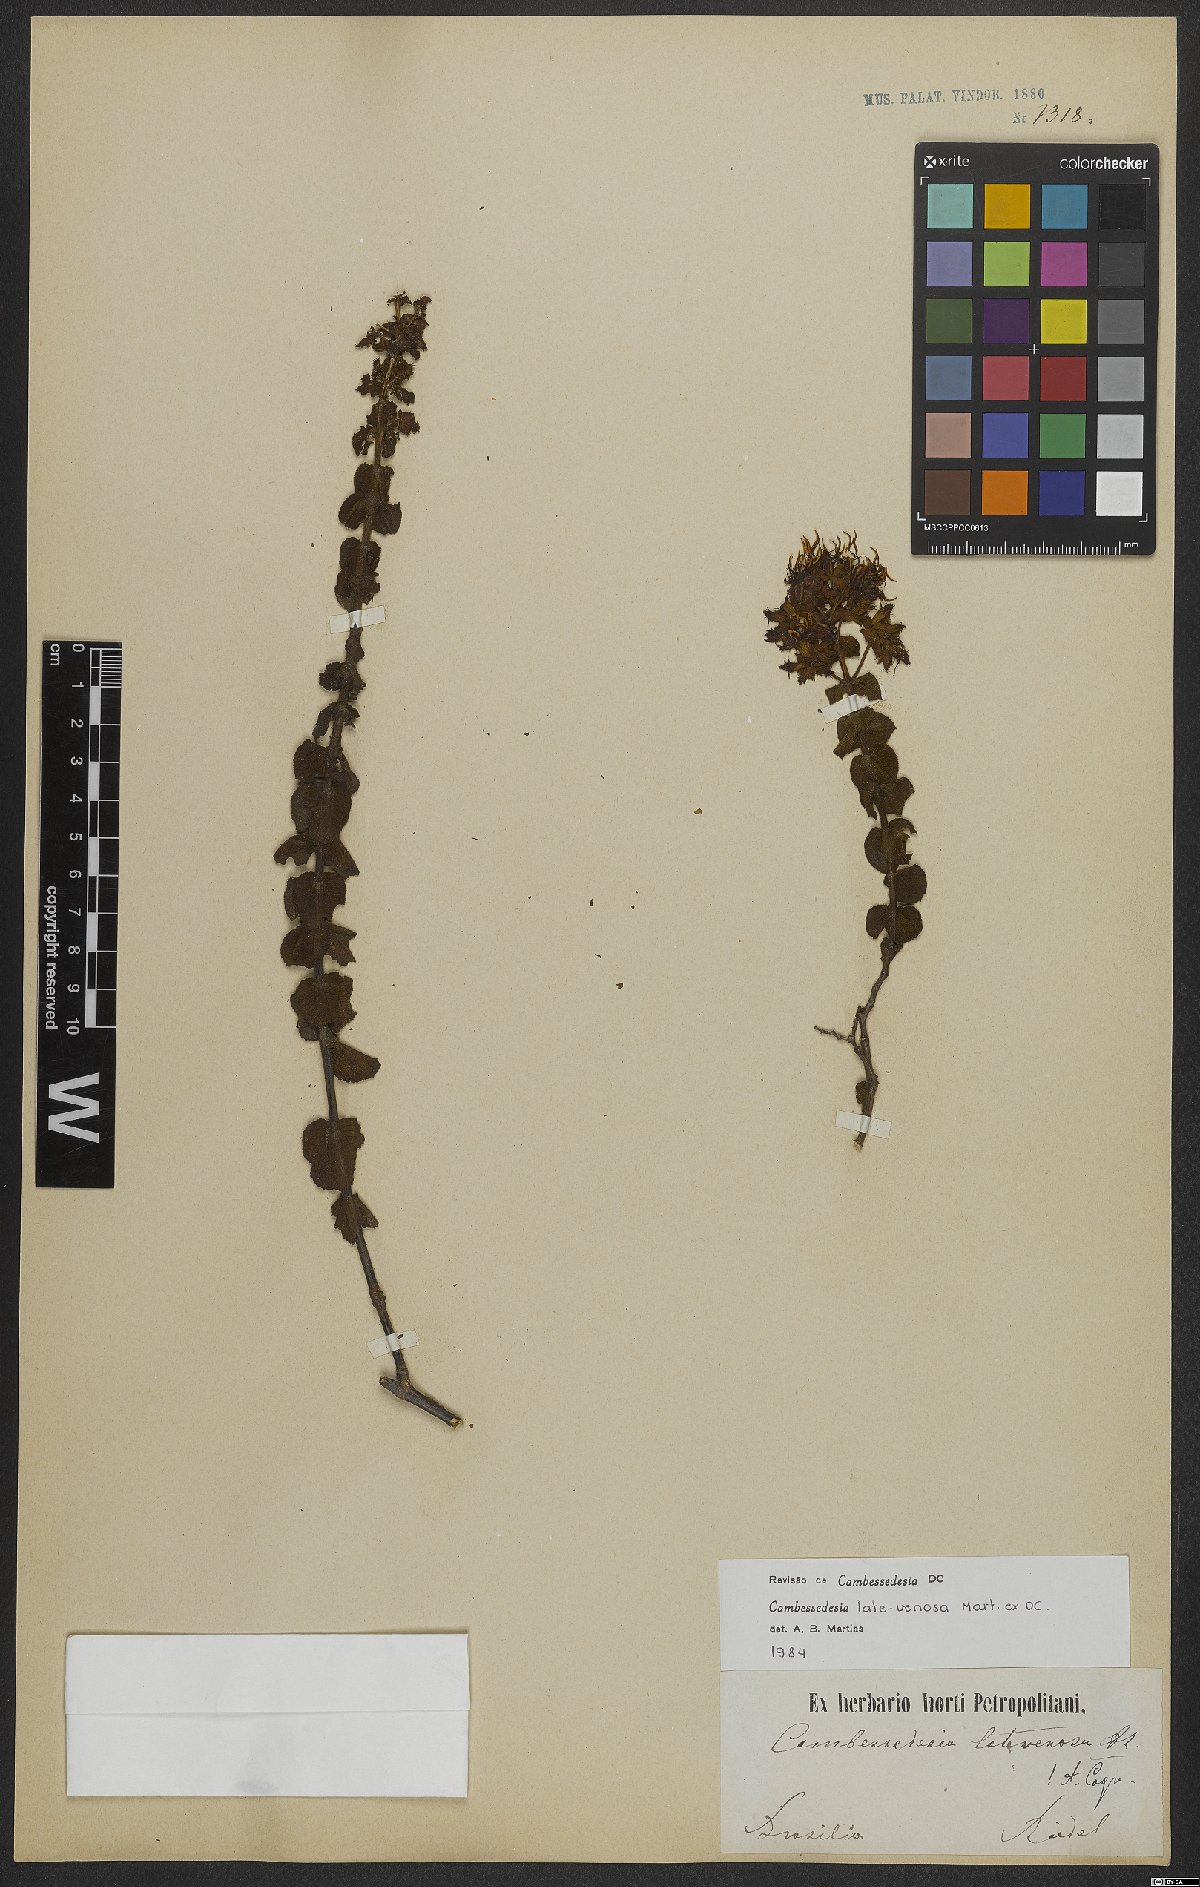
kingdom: Plantae
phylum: Tracheophyta
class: Magnoliopsida
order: Myrtales
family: Melastomataceae
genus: Cambessedesia
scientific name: Cambessedesia latevenosa
